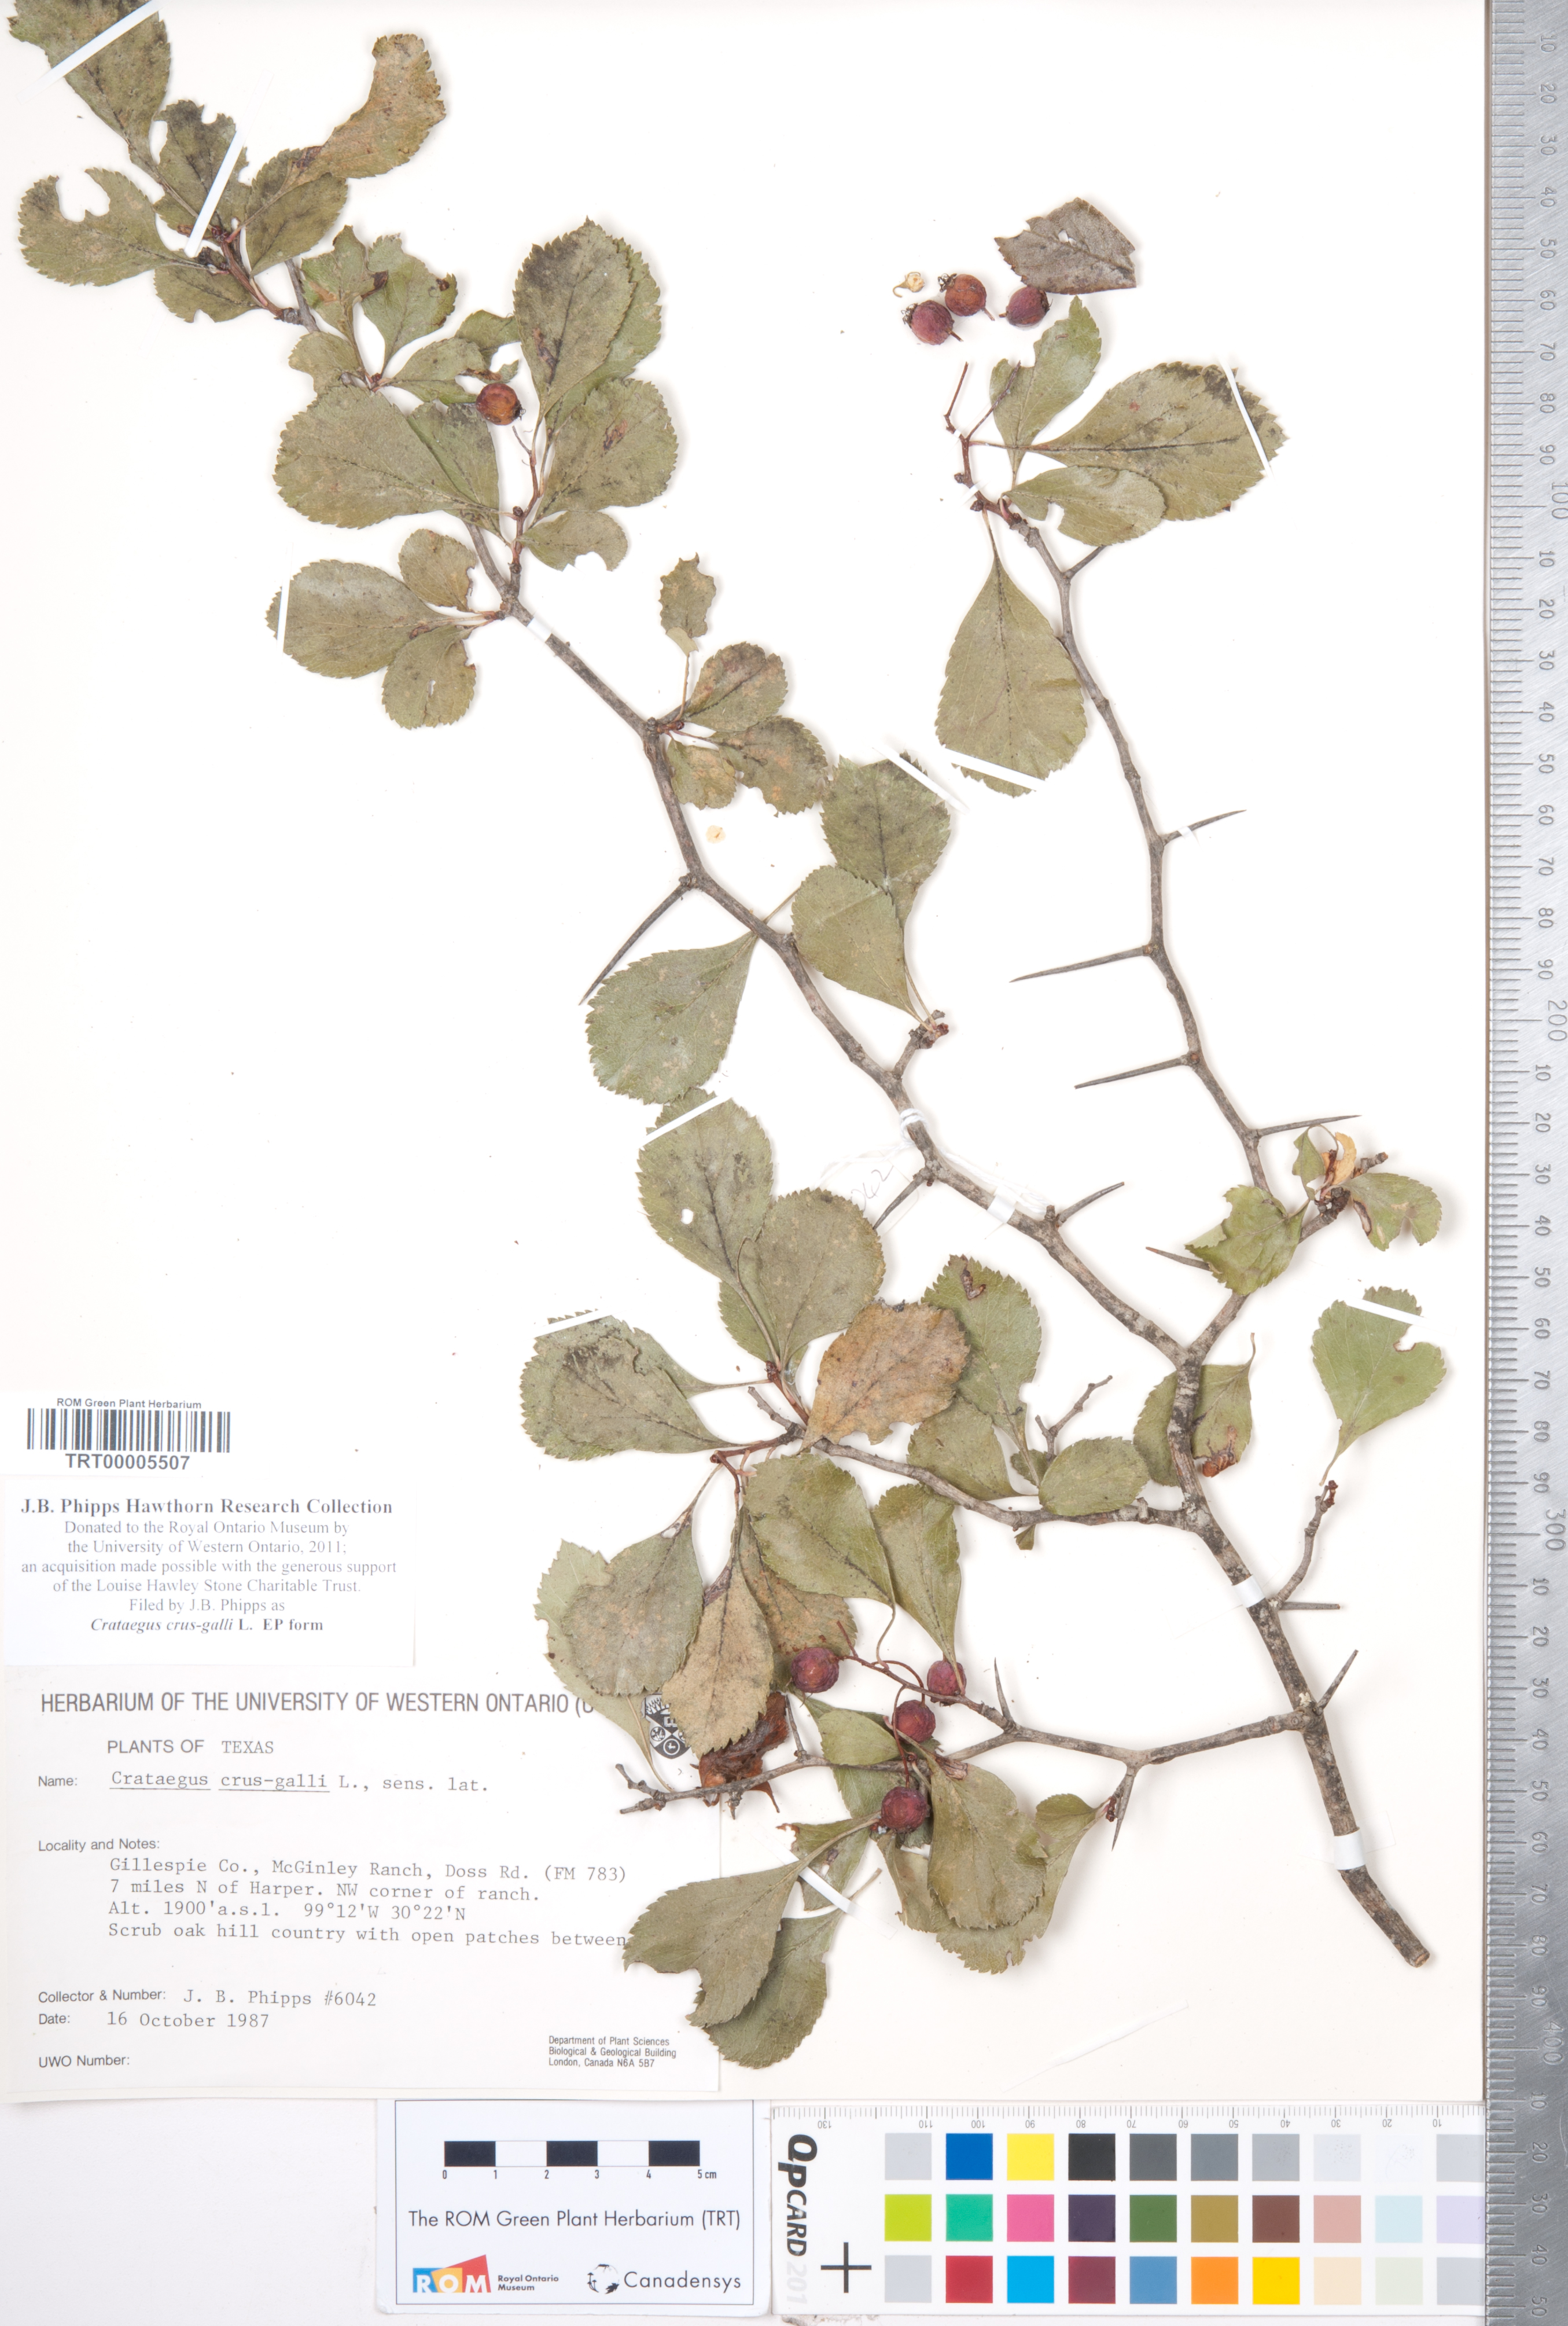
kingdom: Plantae
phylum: Tracheophyta
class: Magnoliopsida
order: Rosales
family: Rosaceae
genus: Crataegus
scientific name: Crataegus crus-galli
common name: Cockspurthorn
